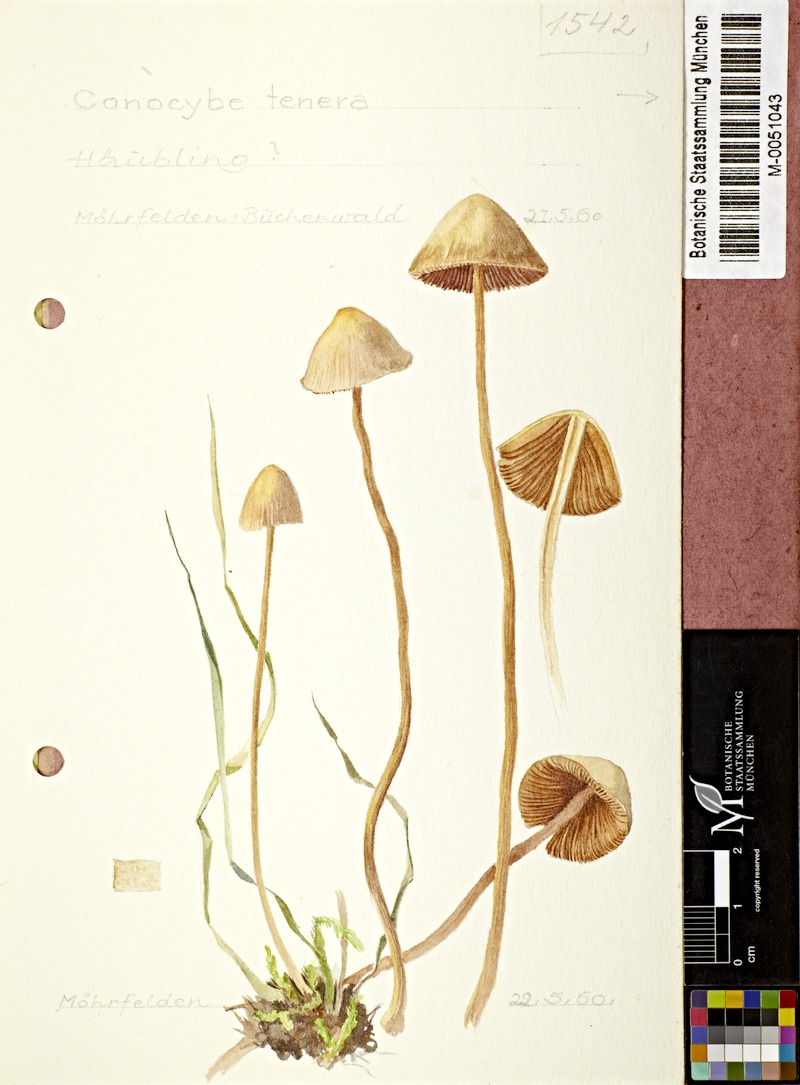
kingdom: Fungi
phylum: Basidiomycota
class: Agaricomycetes
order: Agaricales
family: Bolbitiaceae
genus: Conocybe
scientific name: Conocybe tenera
